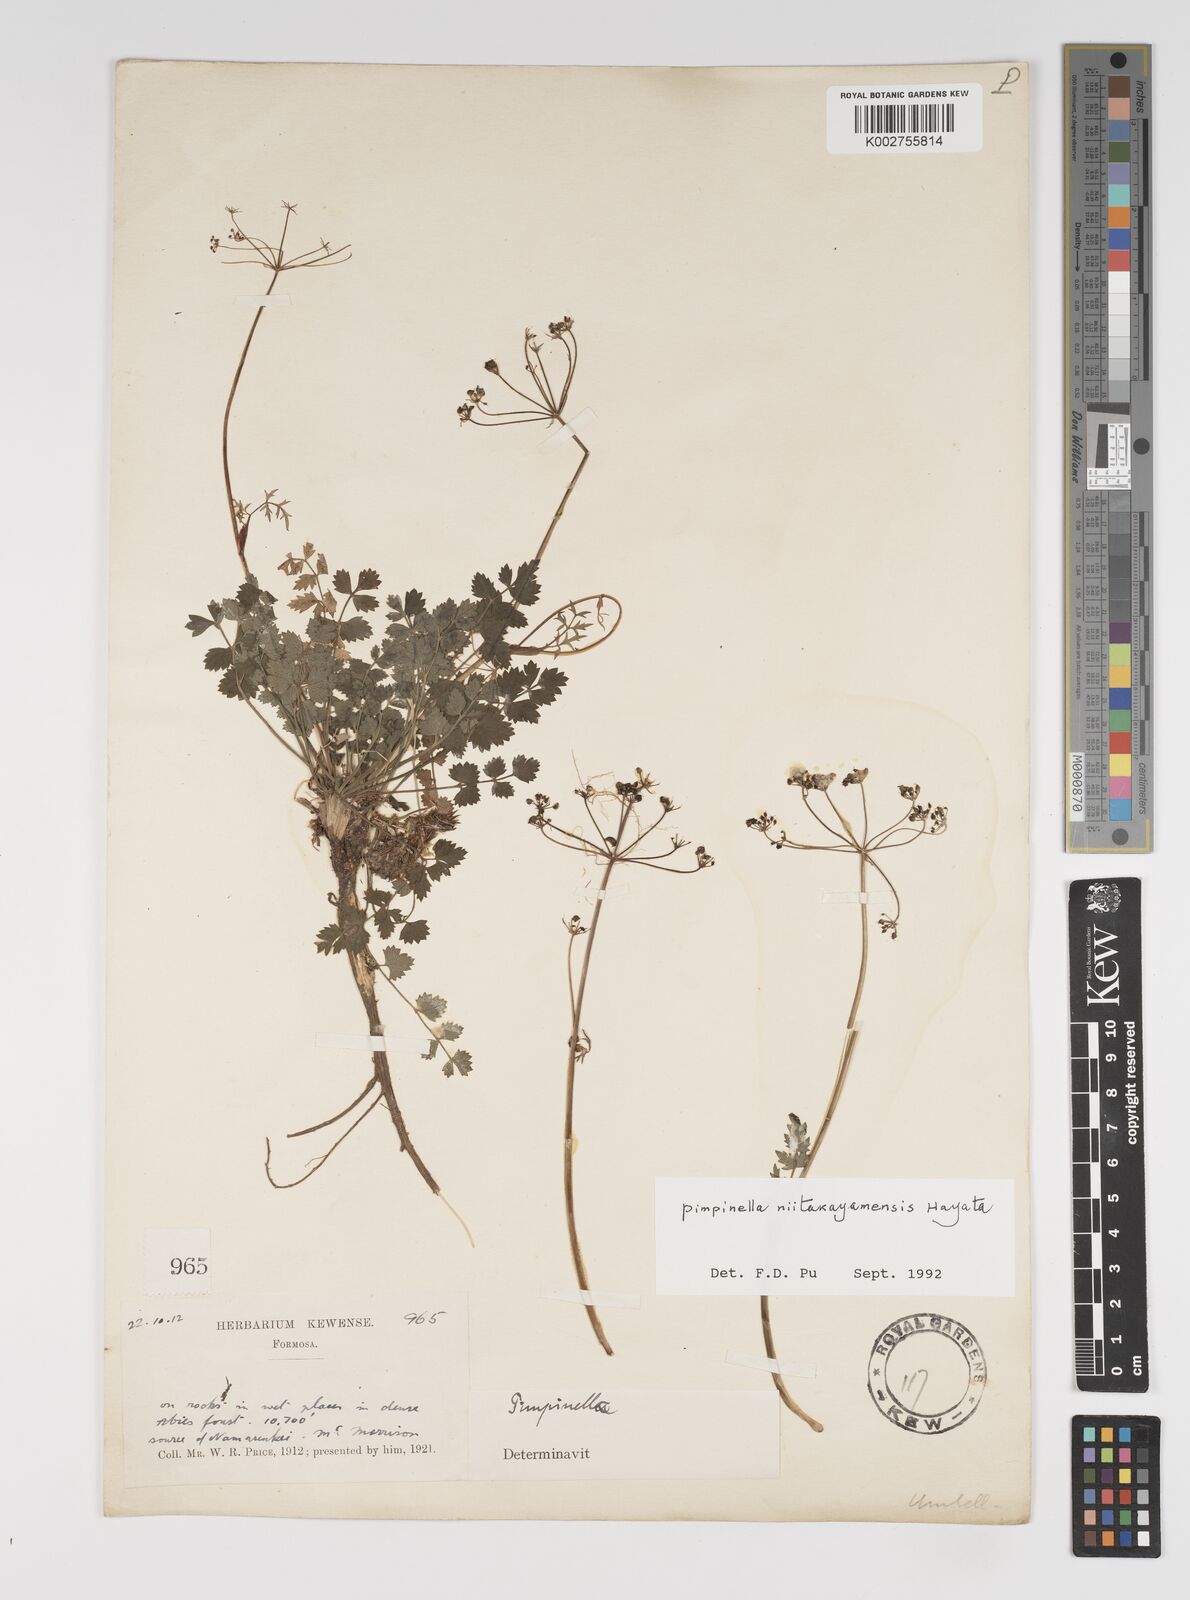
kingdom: Plantae
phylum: Tracheophyta
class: Magnoliopsida
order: Apiales
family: Apiaceae
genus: Pimpinella
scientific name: Pimpinella niitakayamensis
